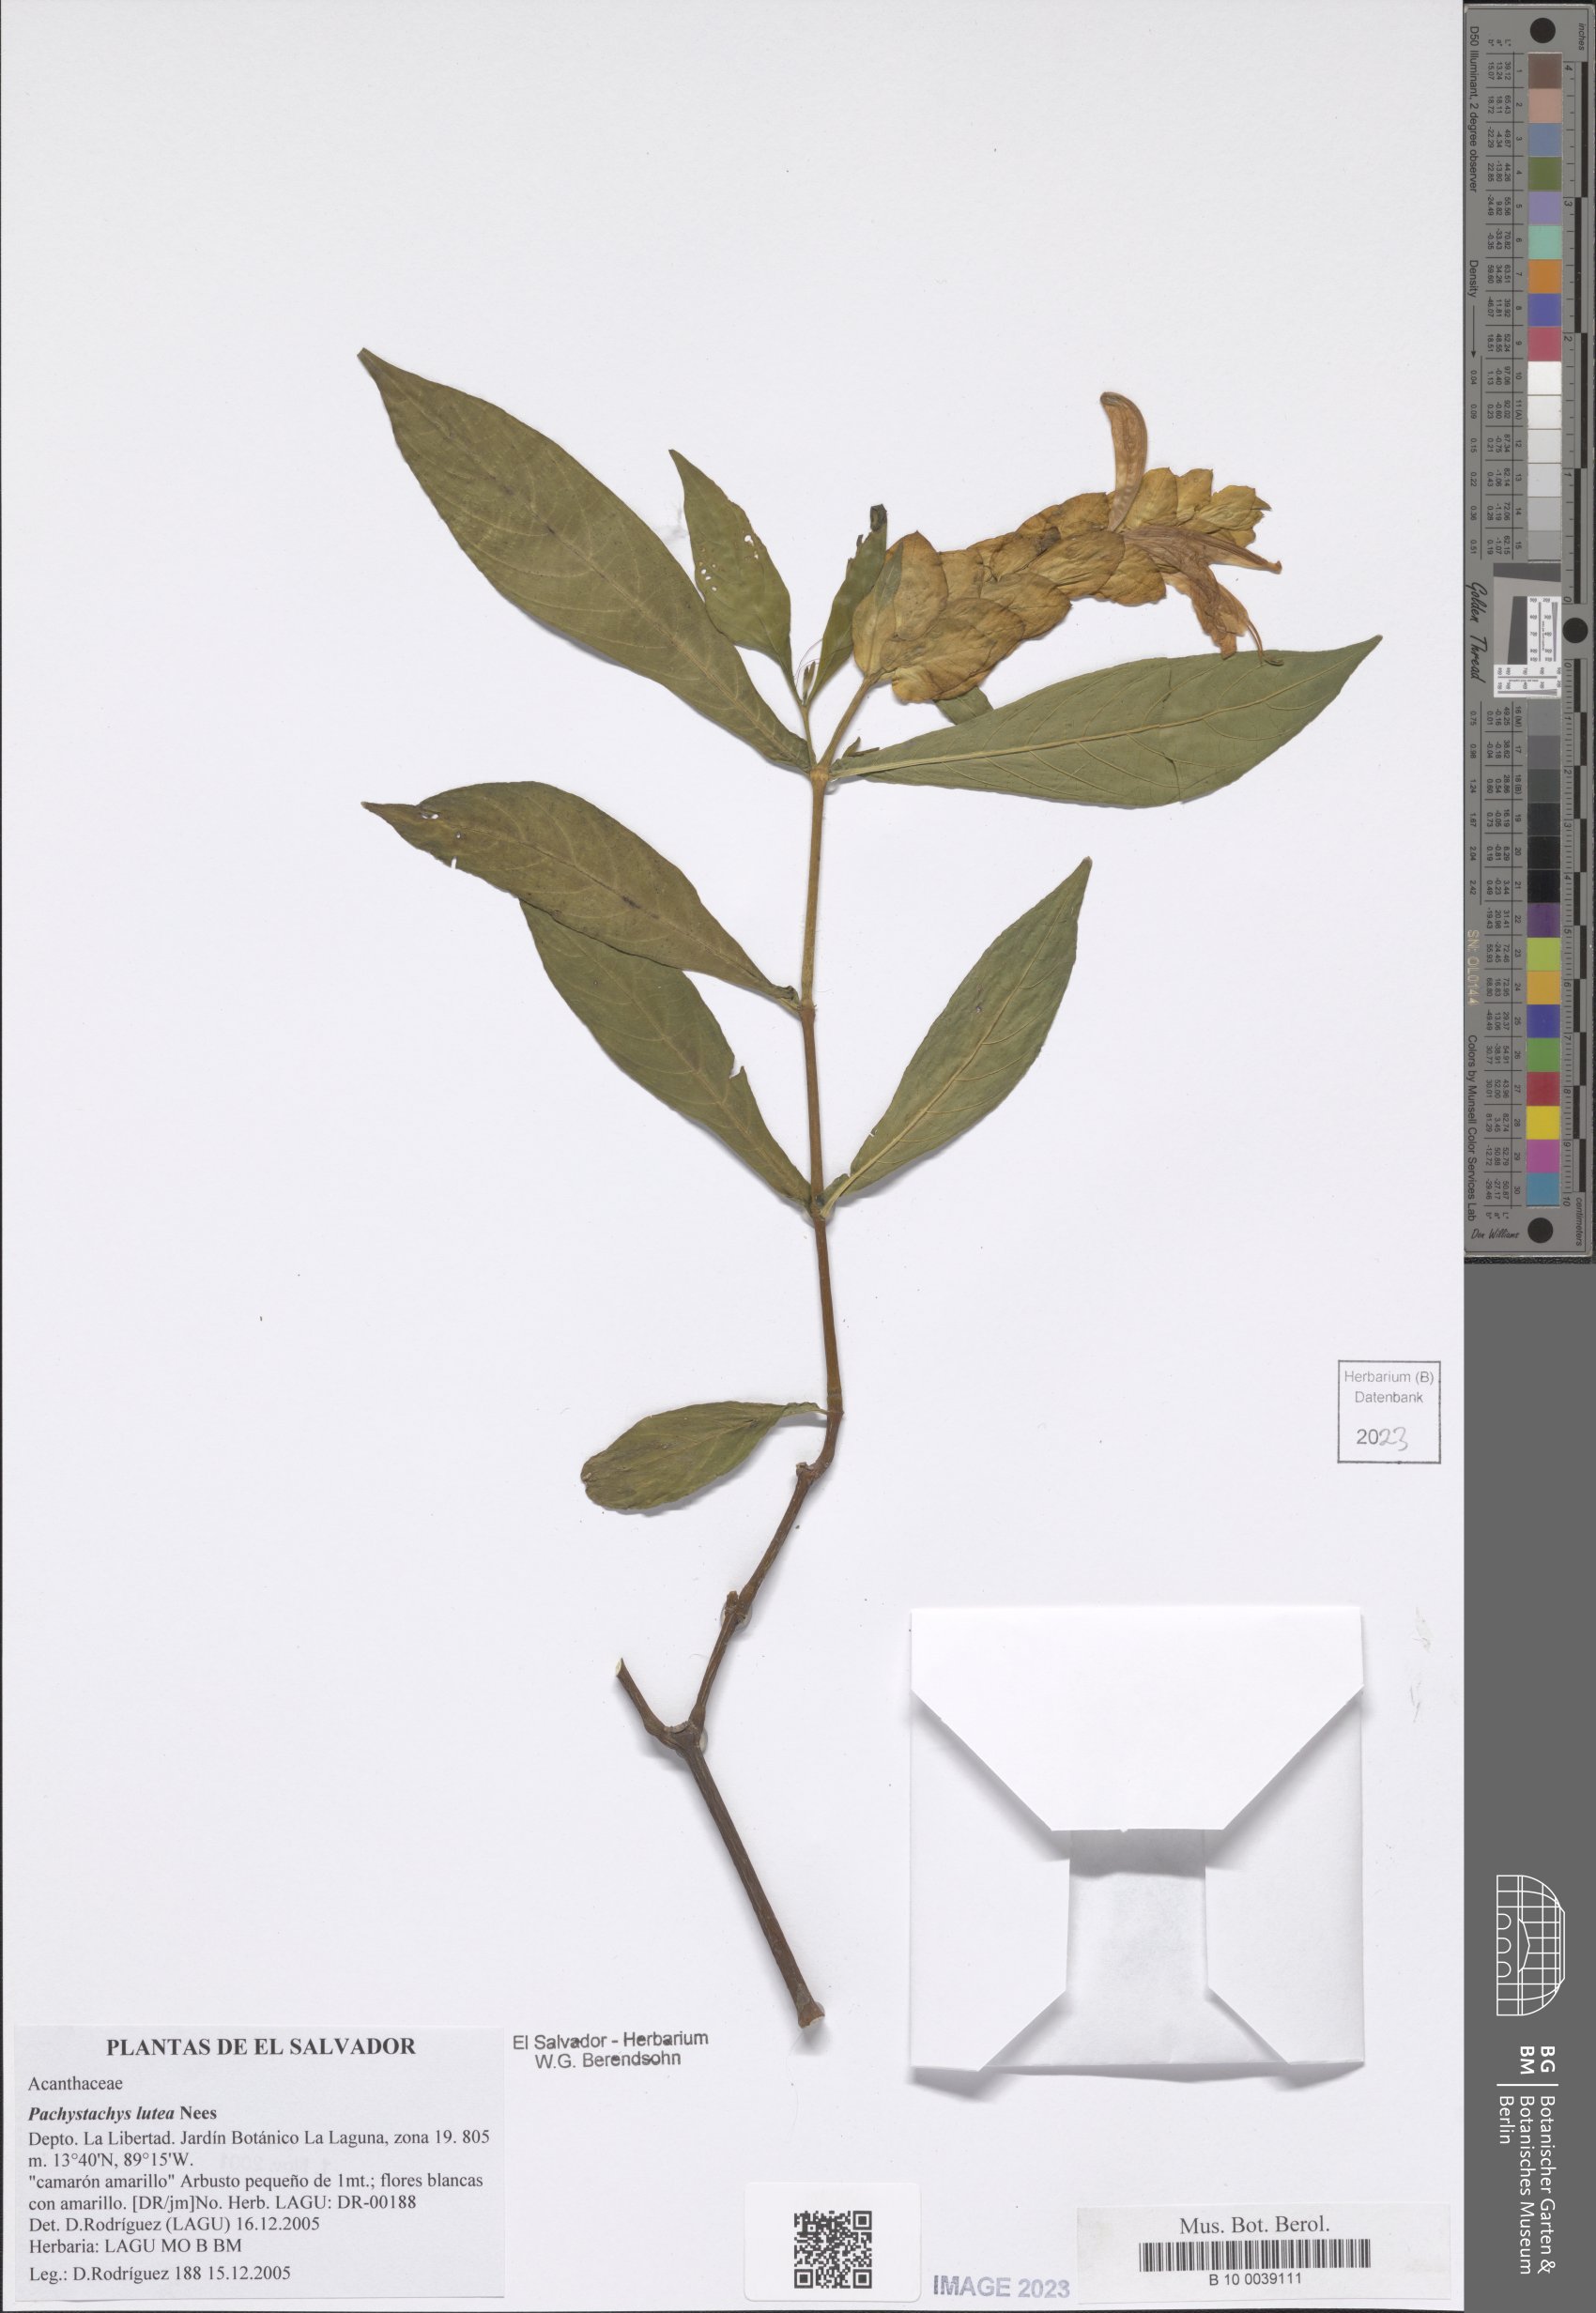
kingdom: Plantae
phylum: Tracheophyta
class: Magnoliopsida
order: Lamiales
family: Acanthaceae
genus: Pachystachys
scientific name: Pachystachys lutea
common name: Golden shrimp-plant
